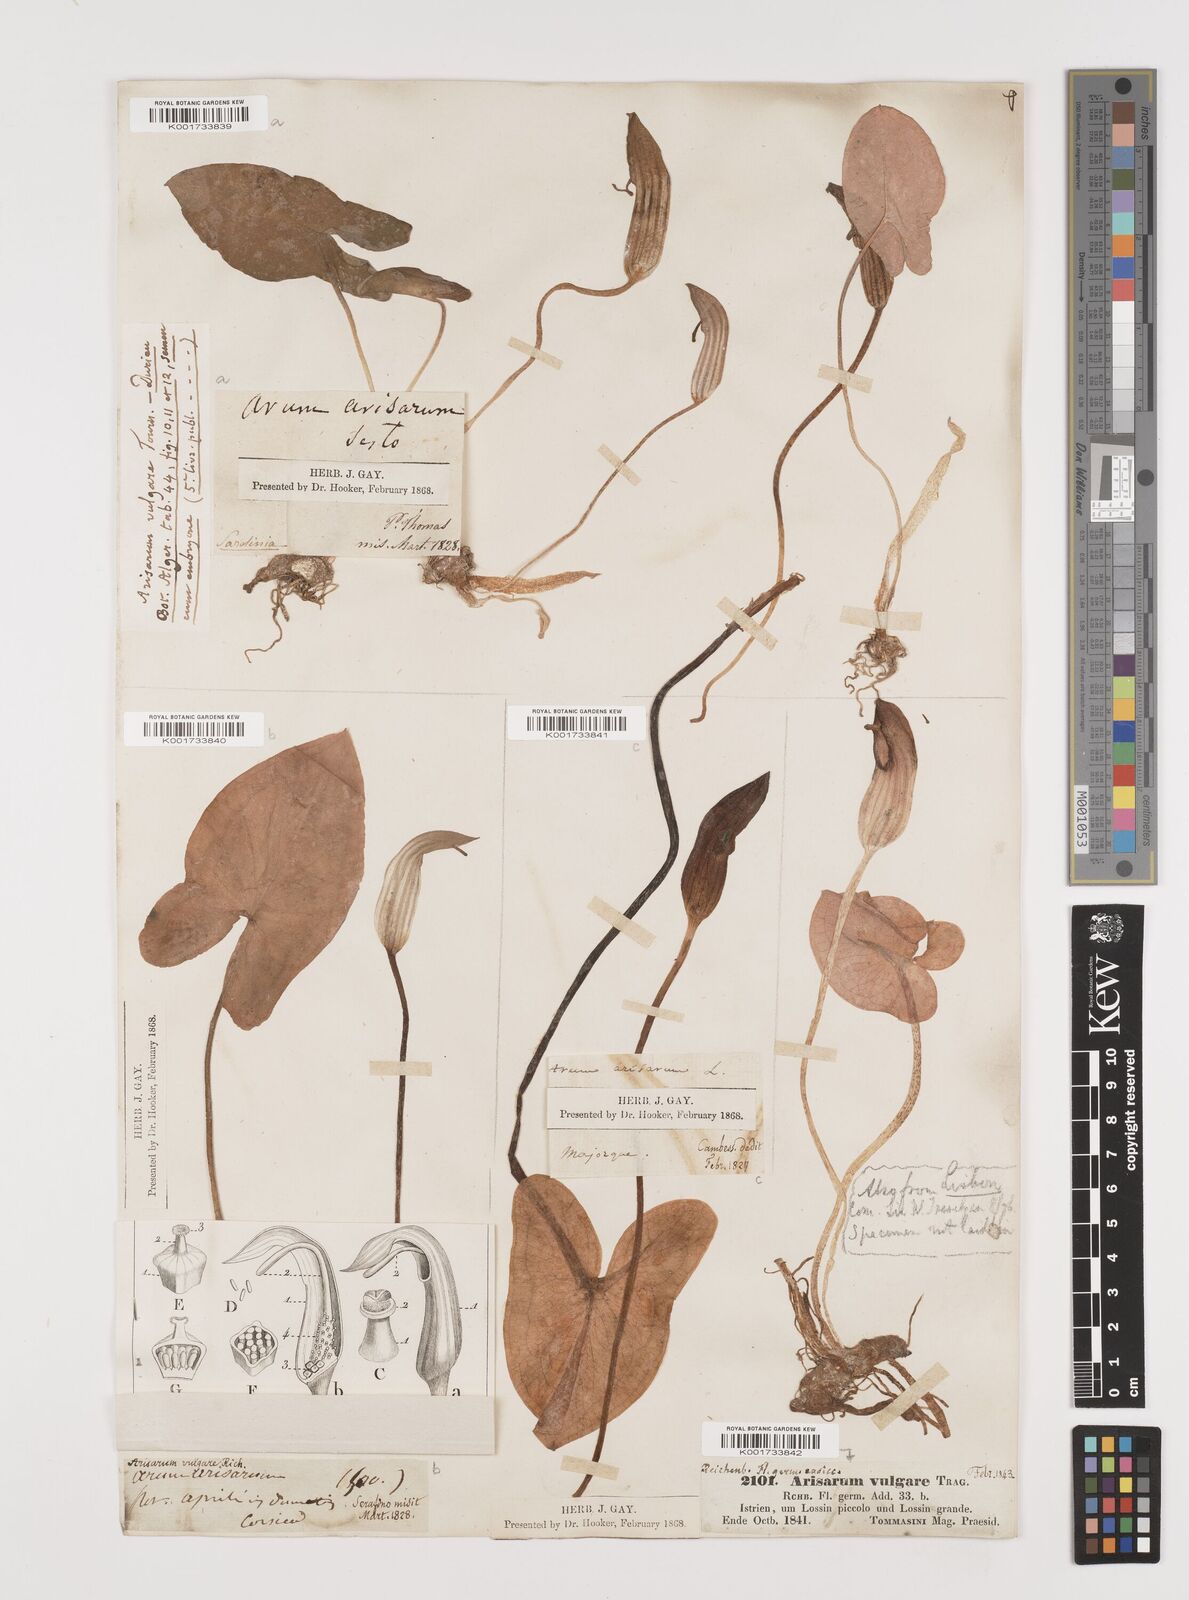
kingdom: Plantae
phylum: Tracheophyta
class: Liliopsida
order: Alismatales
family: Araceae
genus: Arisarum
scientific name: Arisarum vulgare
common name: Common arisarum
